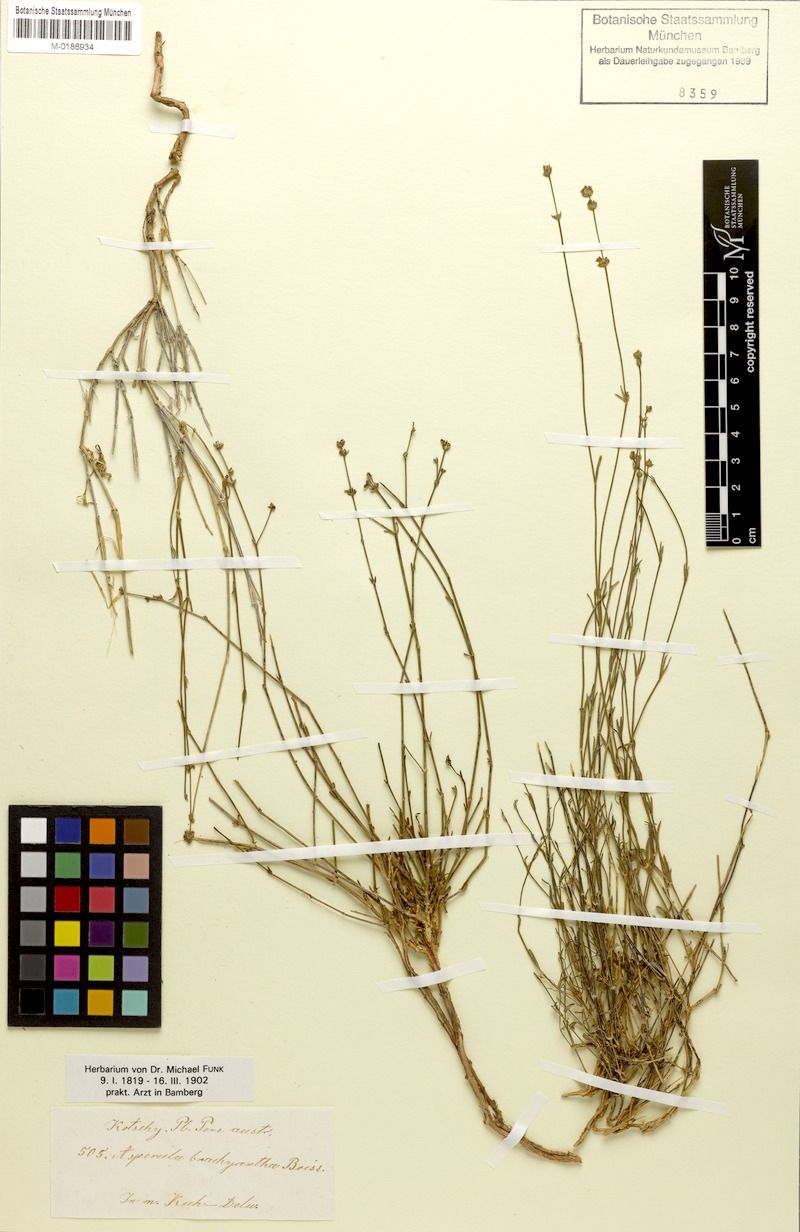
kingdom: Plantae
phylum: Tracheophyta
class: Magnoliopsida
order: Gentianales
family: Rubiaceae
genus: Asperula
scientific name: Asperula brachyantha
